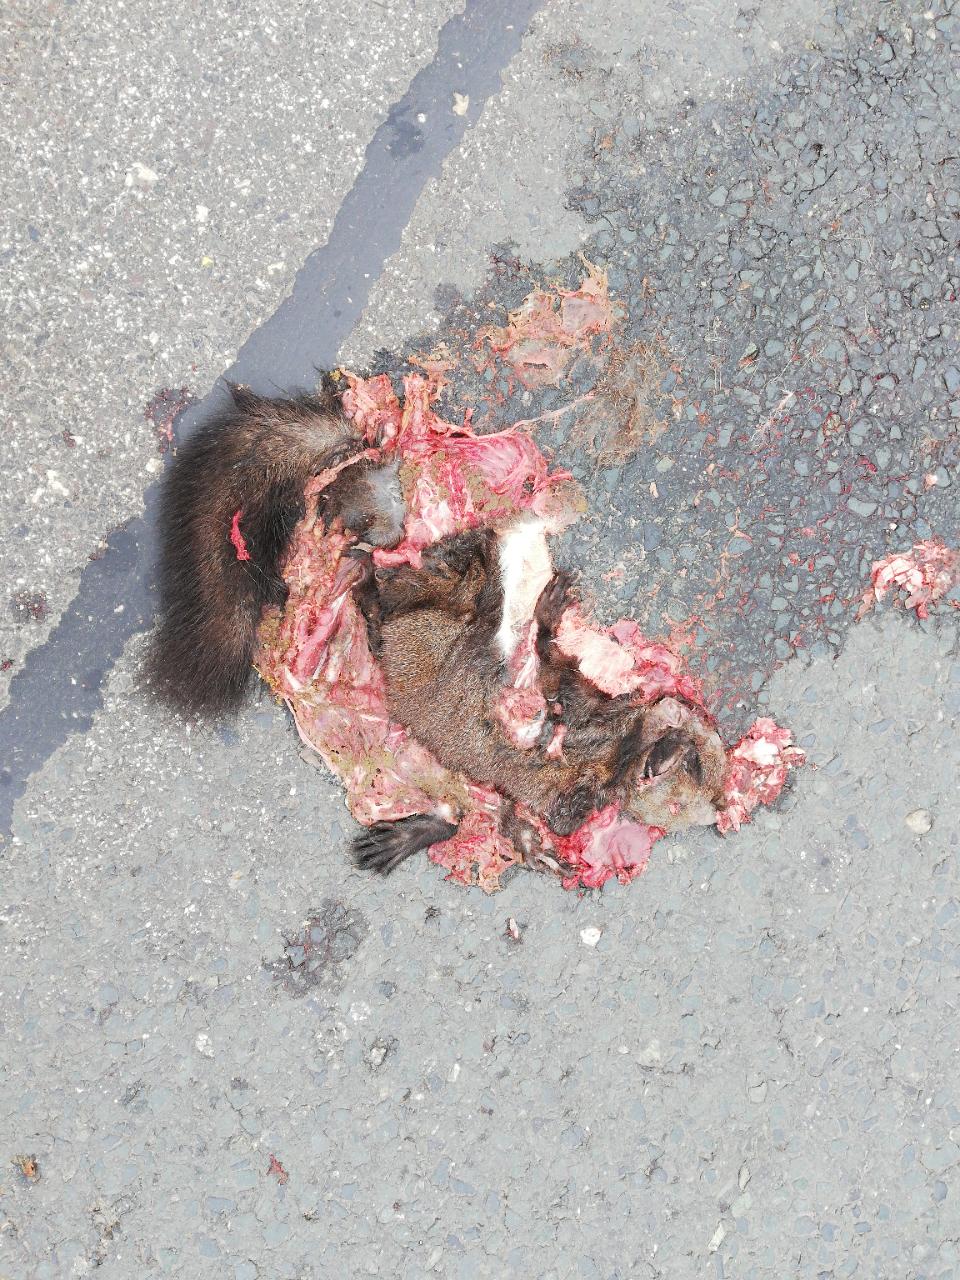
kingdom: Animalia
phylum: Chordata
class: Mammalia
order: Rodentia
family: Sciuridae
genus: Sciurus
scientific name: Sciurus vulgaris
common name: Eurasian red squirrel
